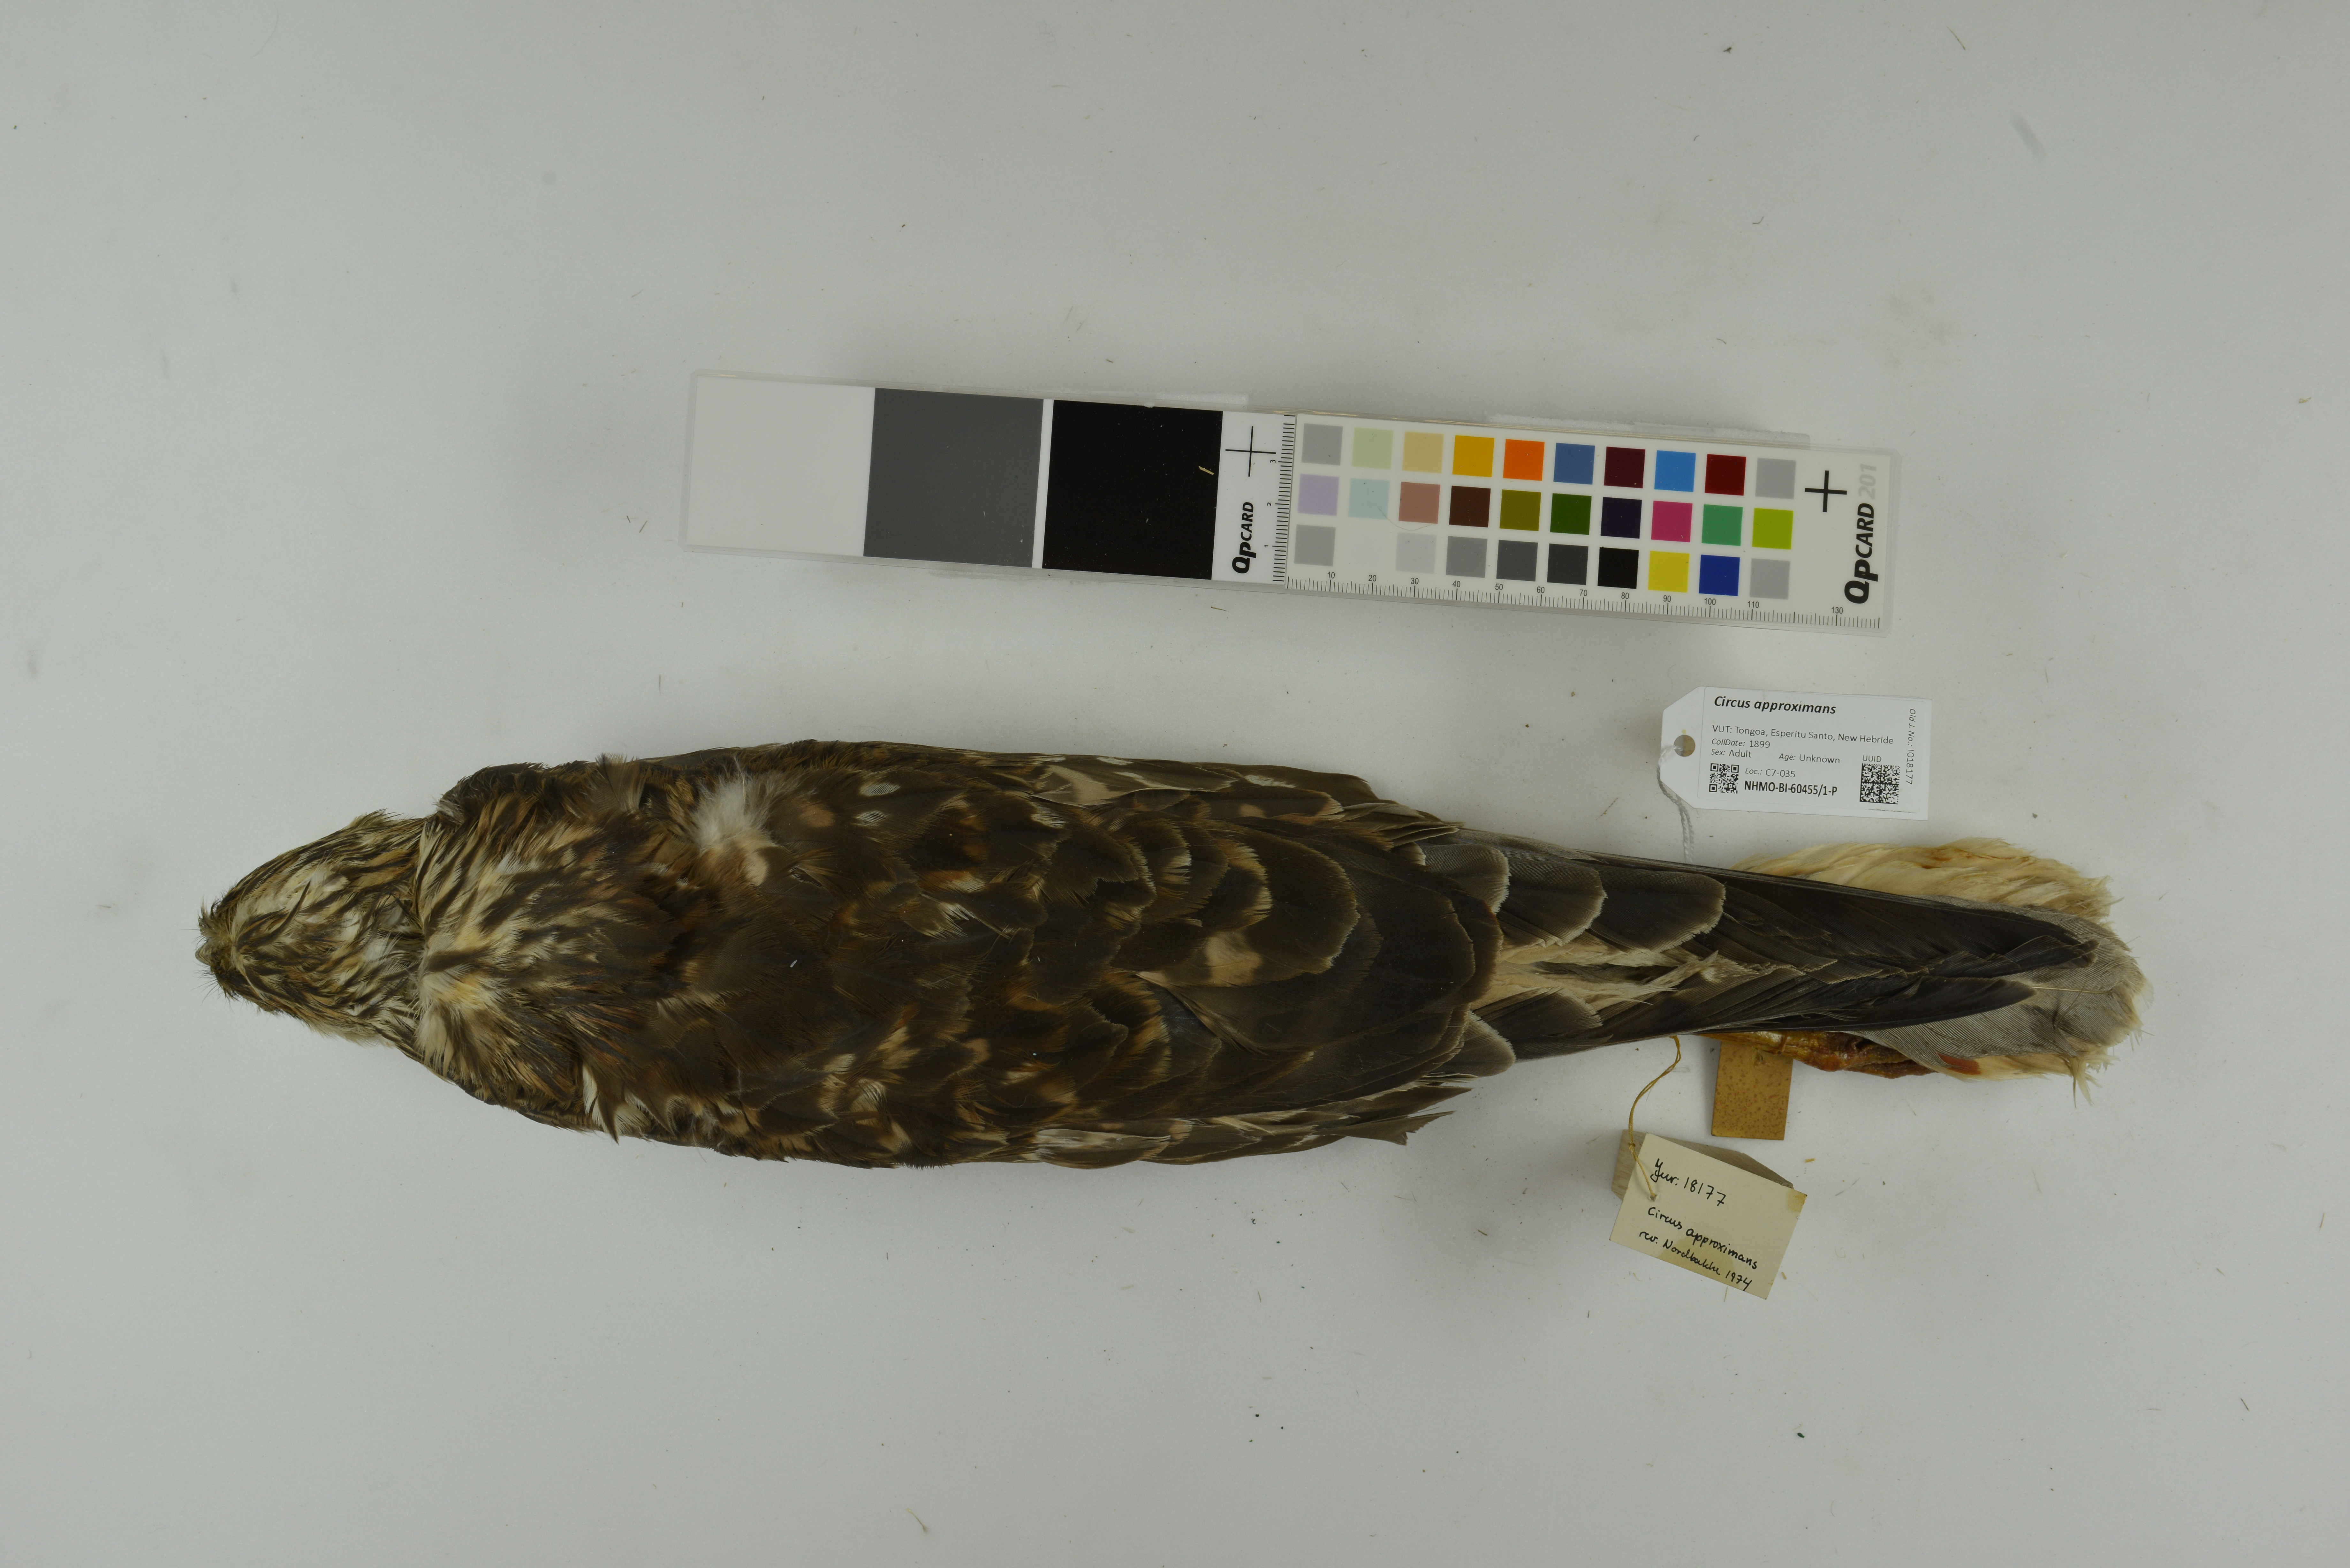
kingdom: Animalia
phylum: Chordata
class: Aves
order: Accipitriformes
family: Accipitridae
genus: Circus
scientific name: Circus approximans
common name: Swamp harrier
